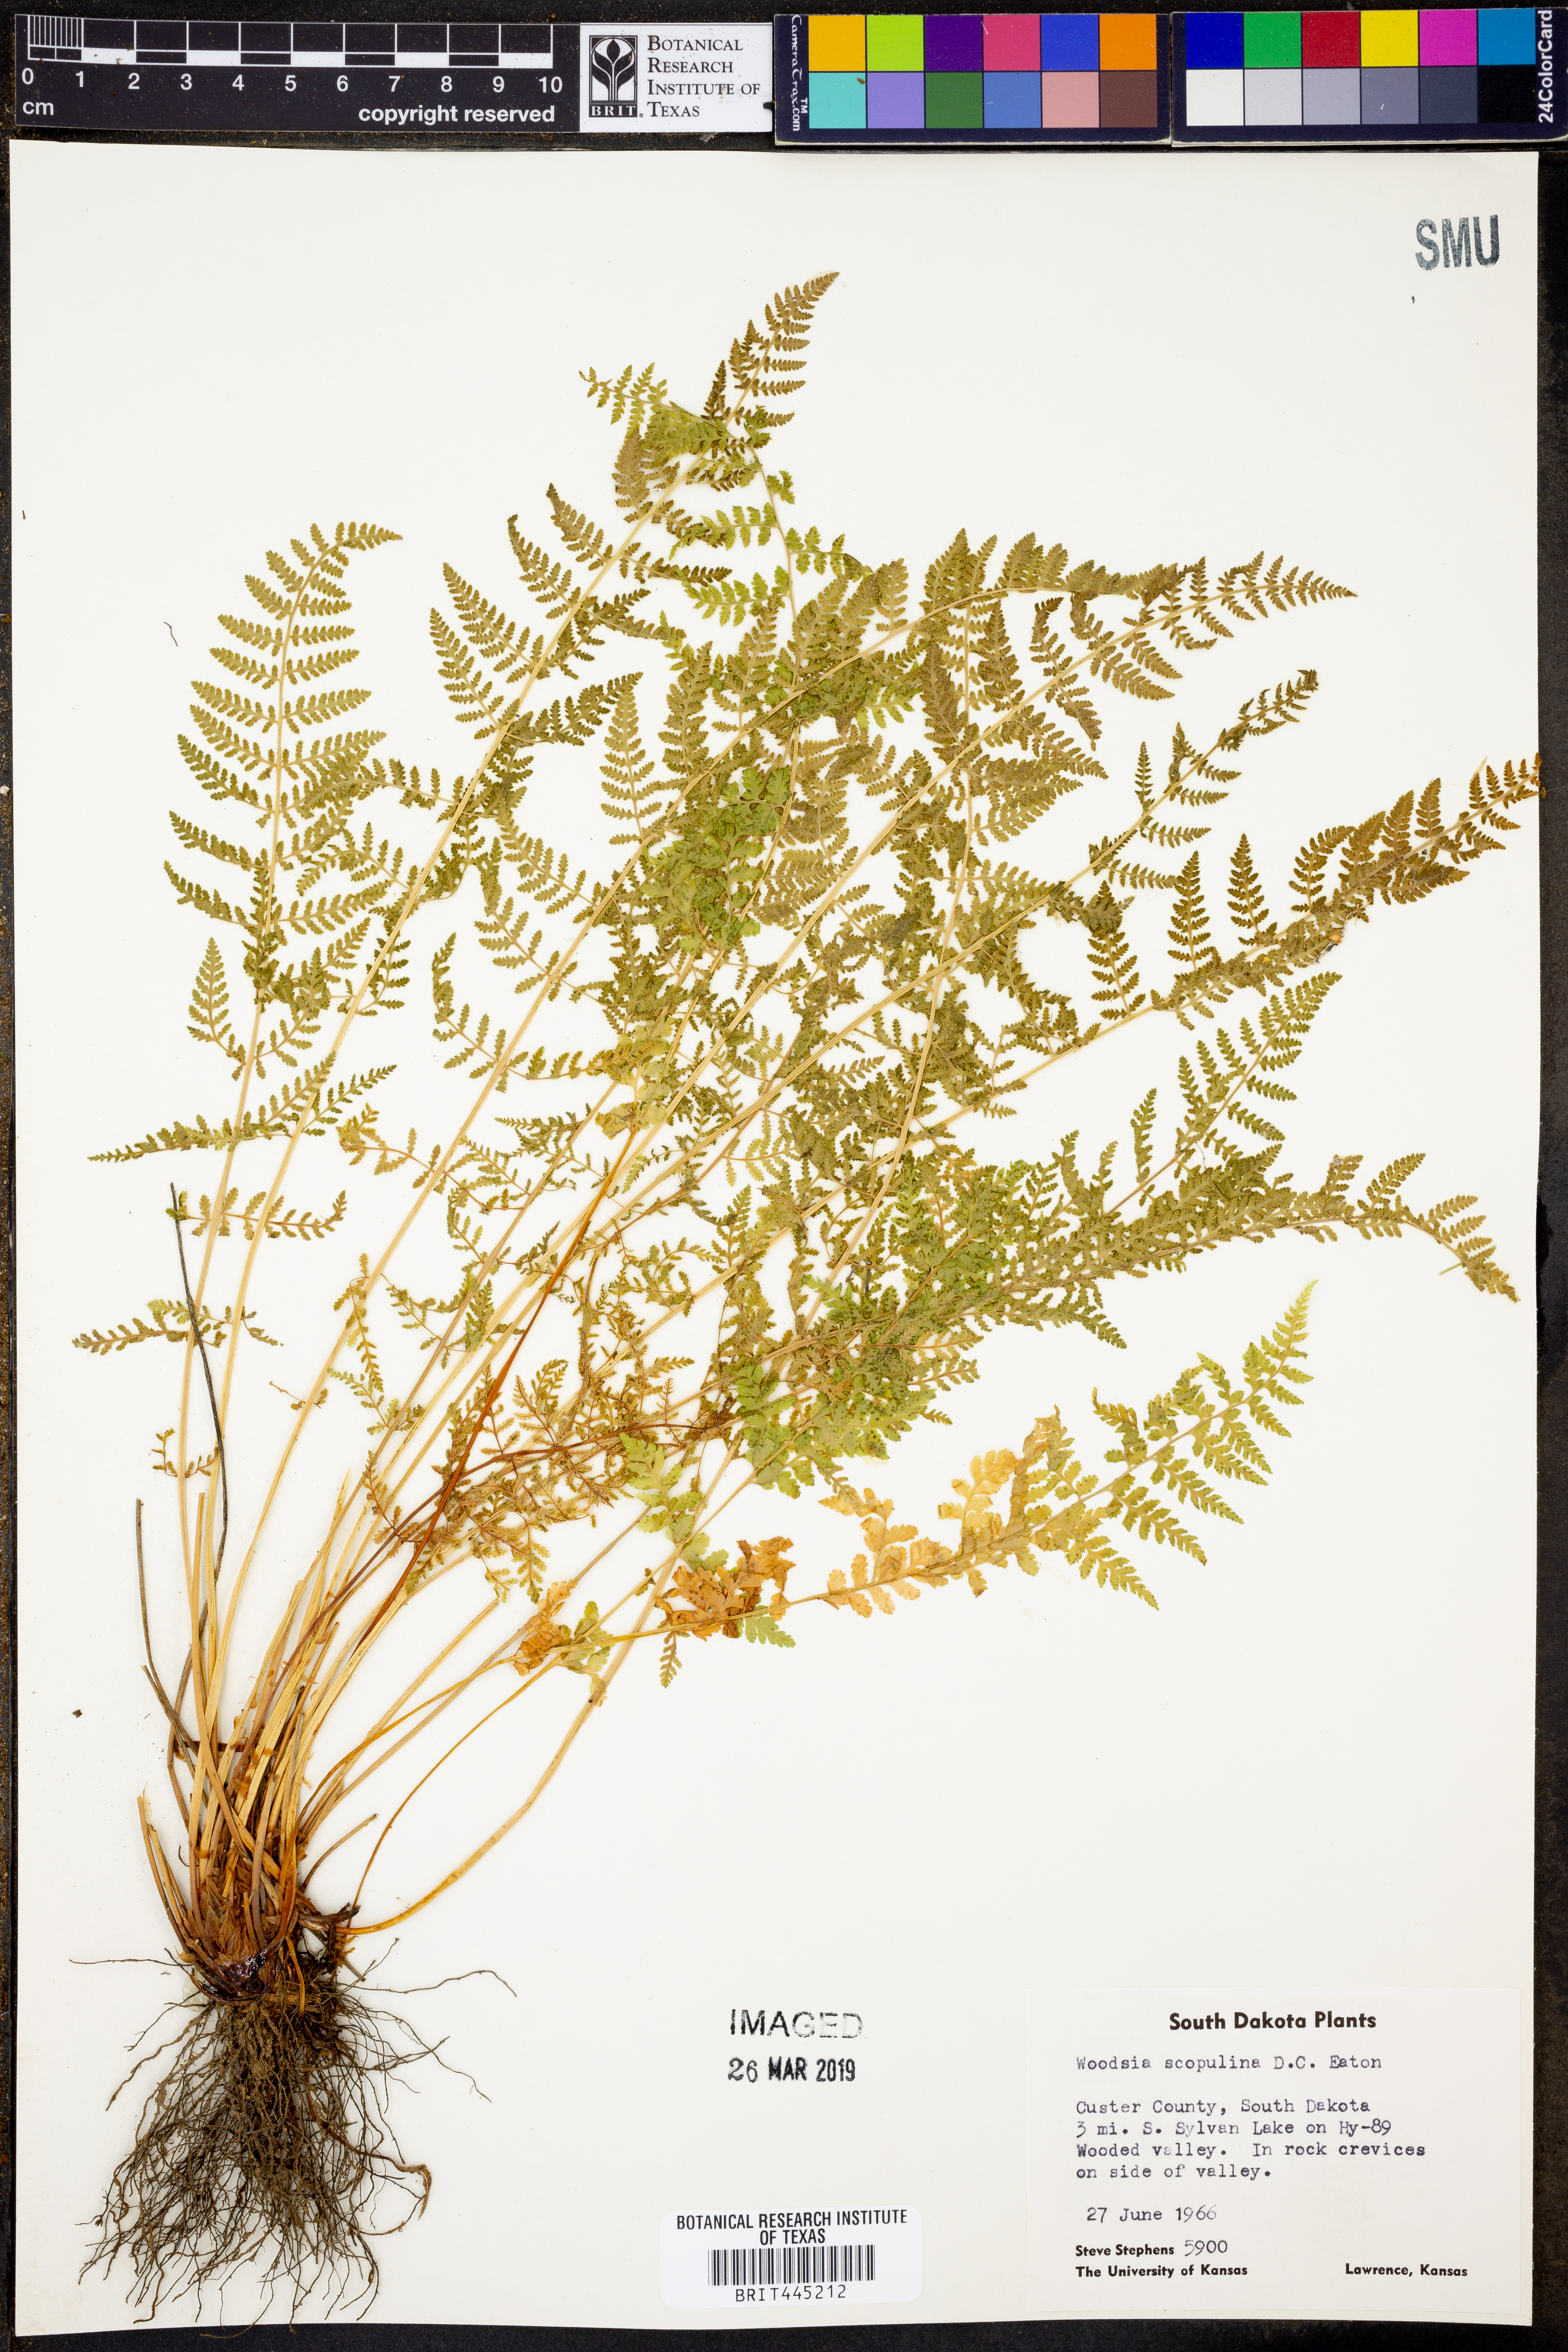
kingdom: Plantae
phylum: Tracheophyta
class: Polypodiopsida
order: Polypodiales
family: Woodsiaceae
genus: Physematium
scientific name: Physematium scopulinum
